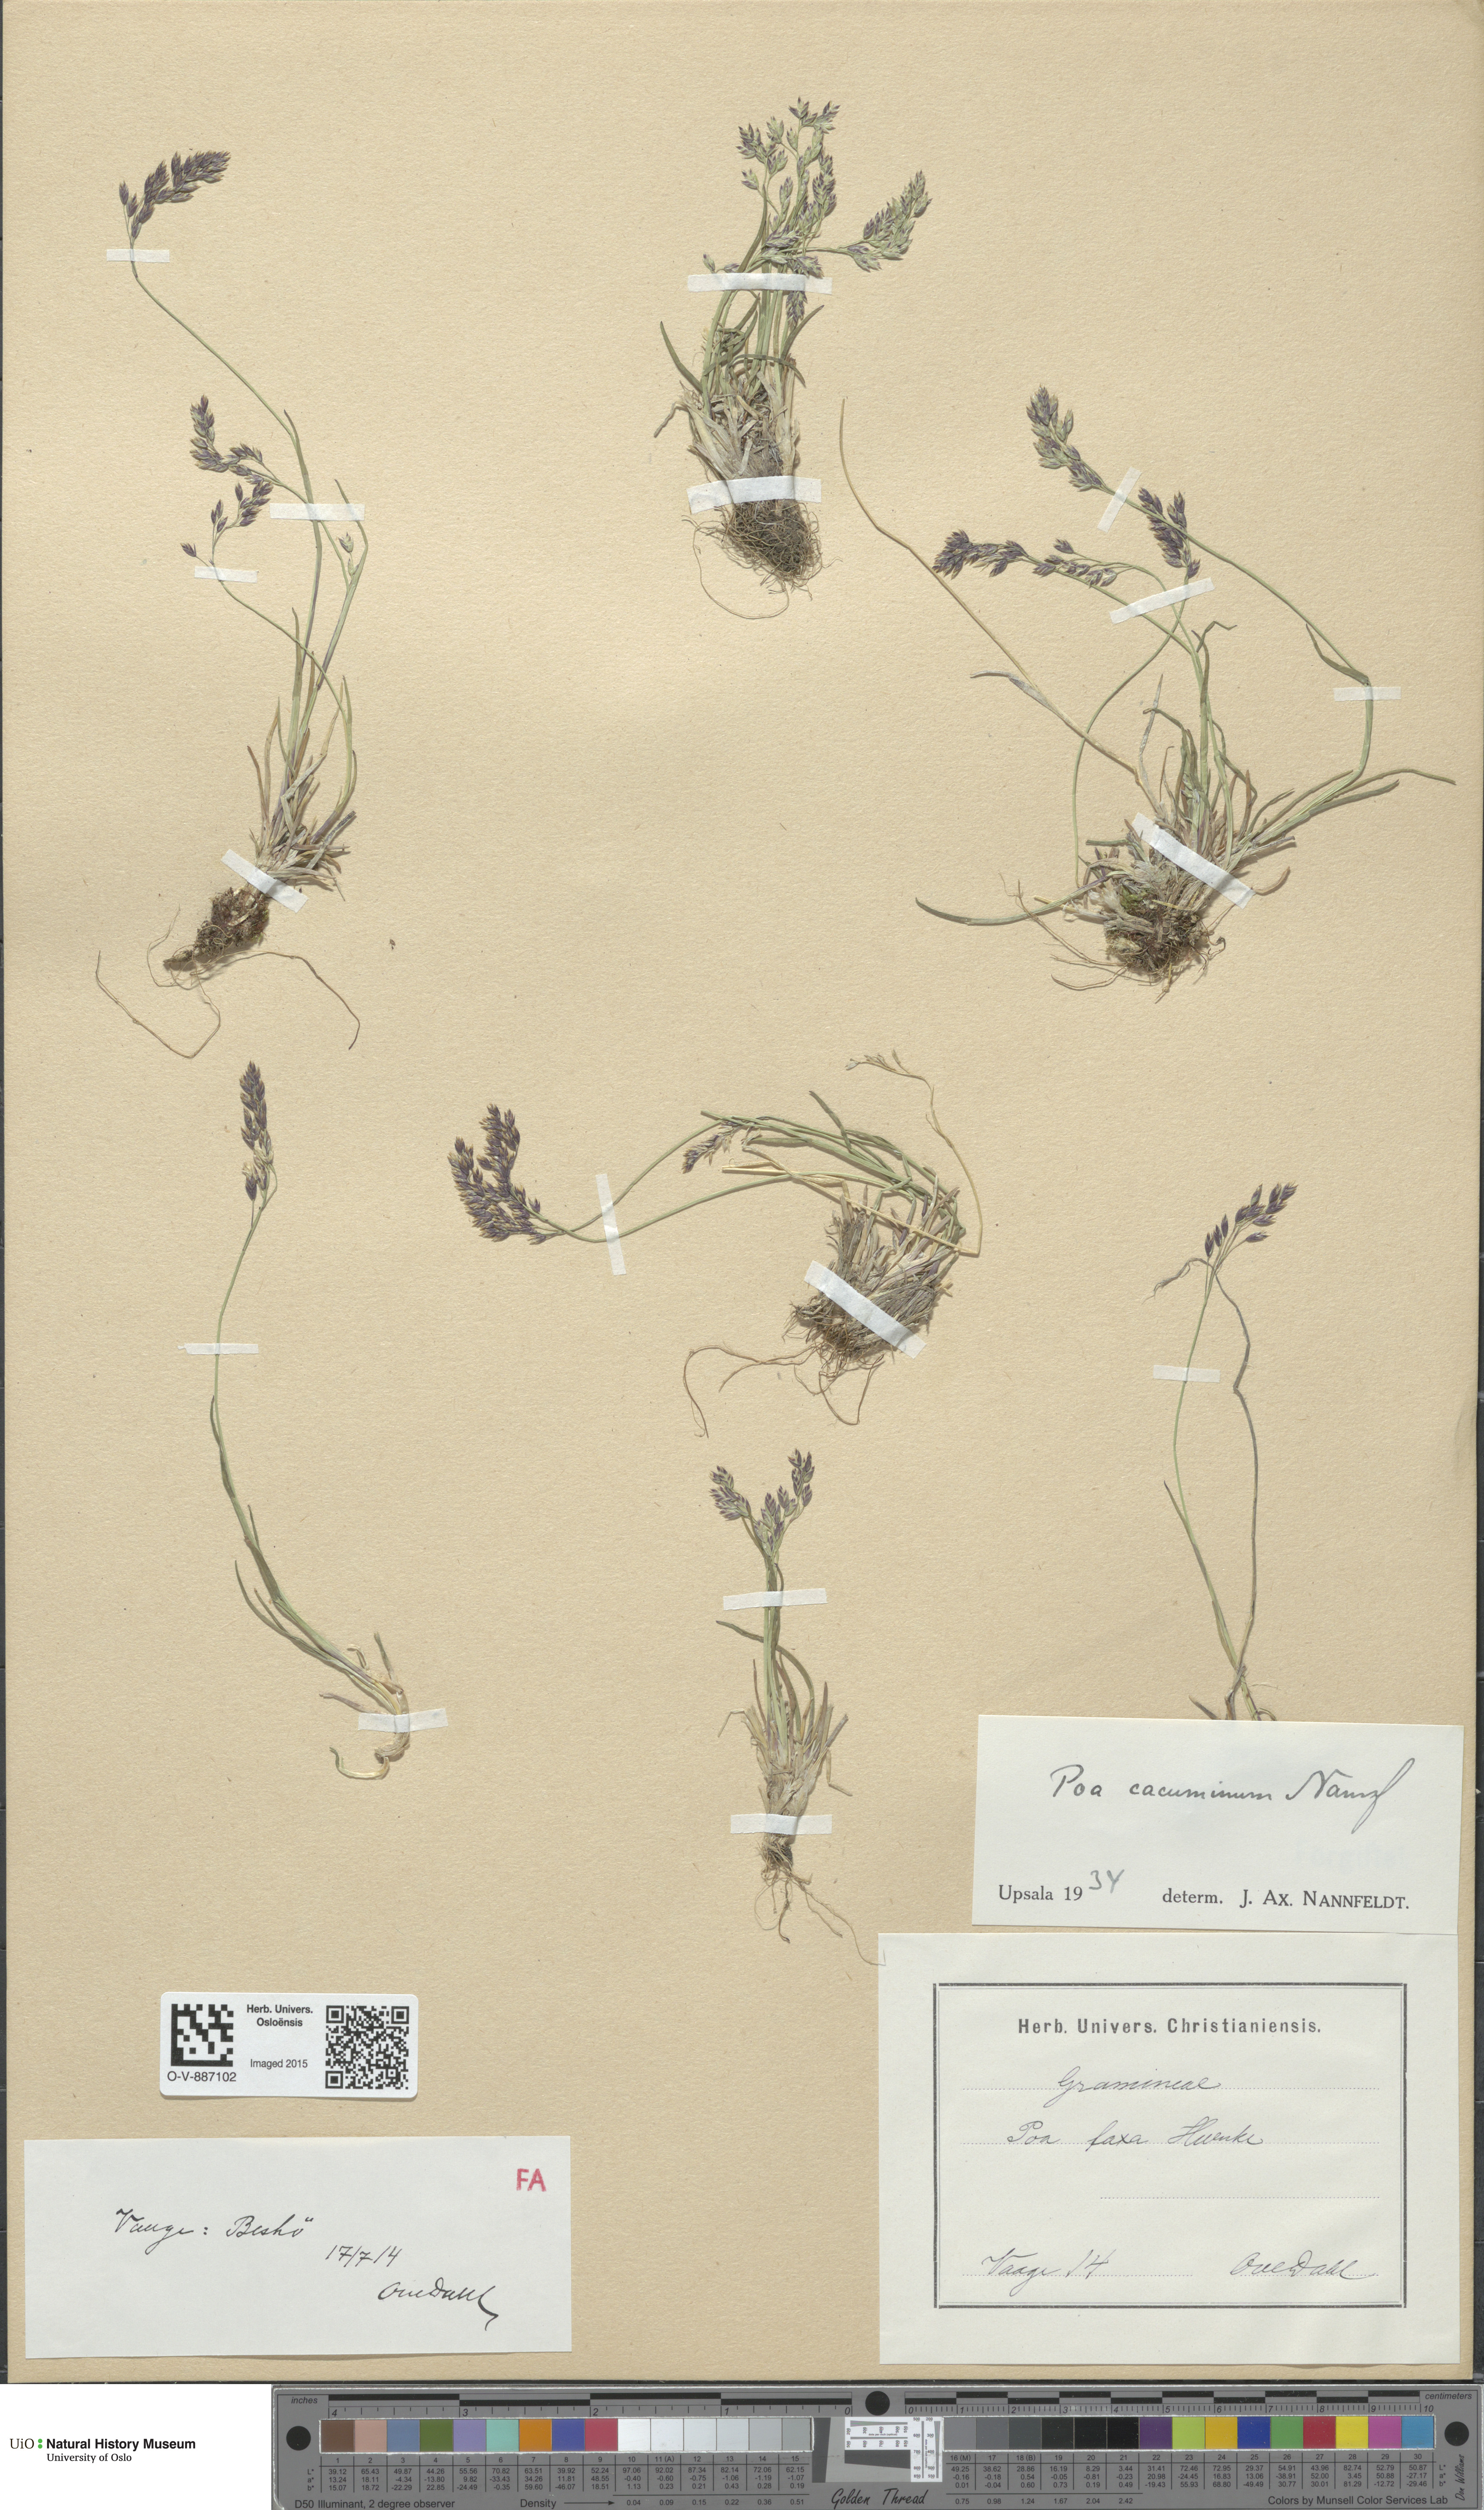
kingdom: Plantae
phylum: Tracheophyta
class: Liliopsida
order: Poales
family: Poaceae
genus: Poa
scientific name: Poa flexuosa
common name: Wavy meadow-grass
